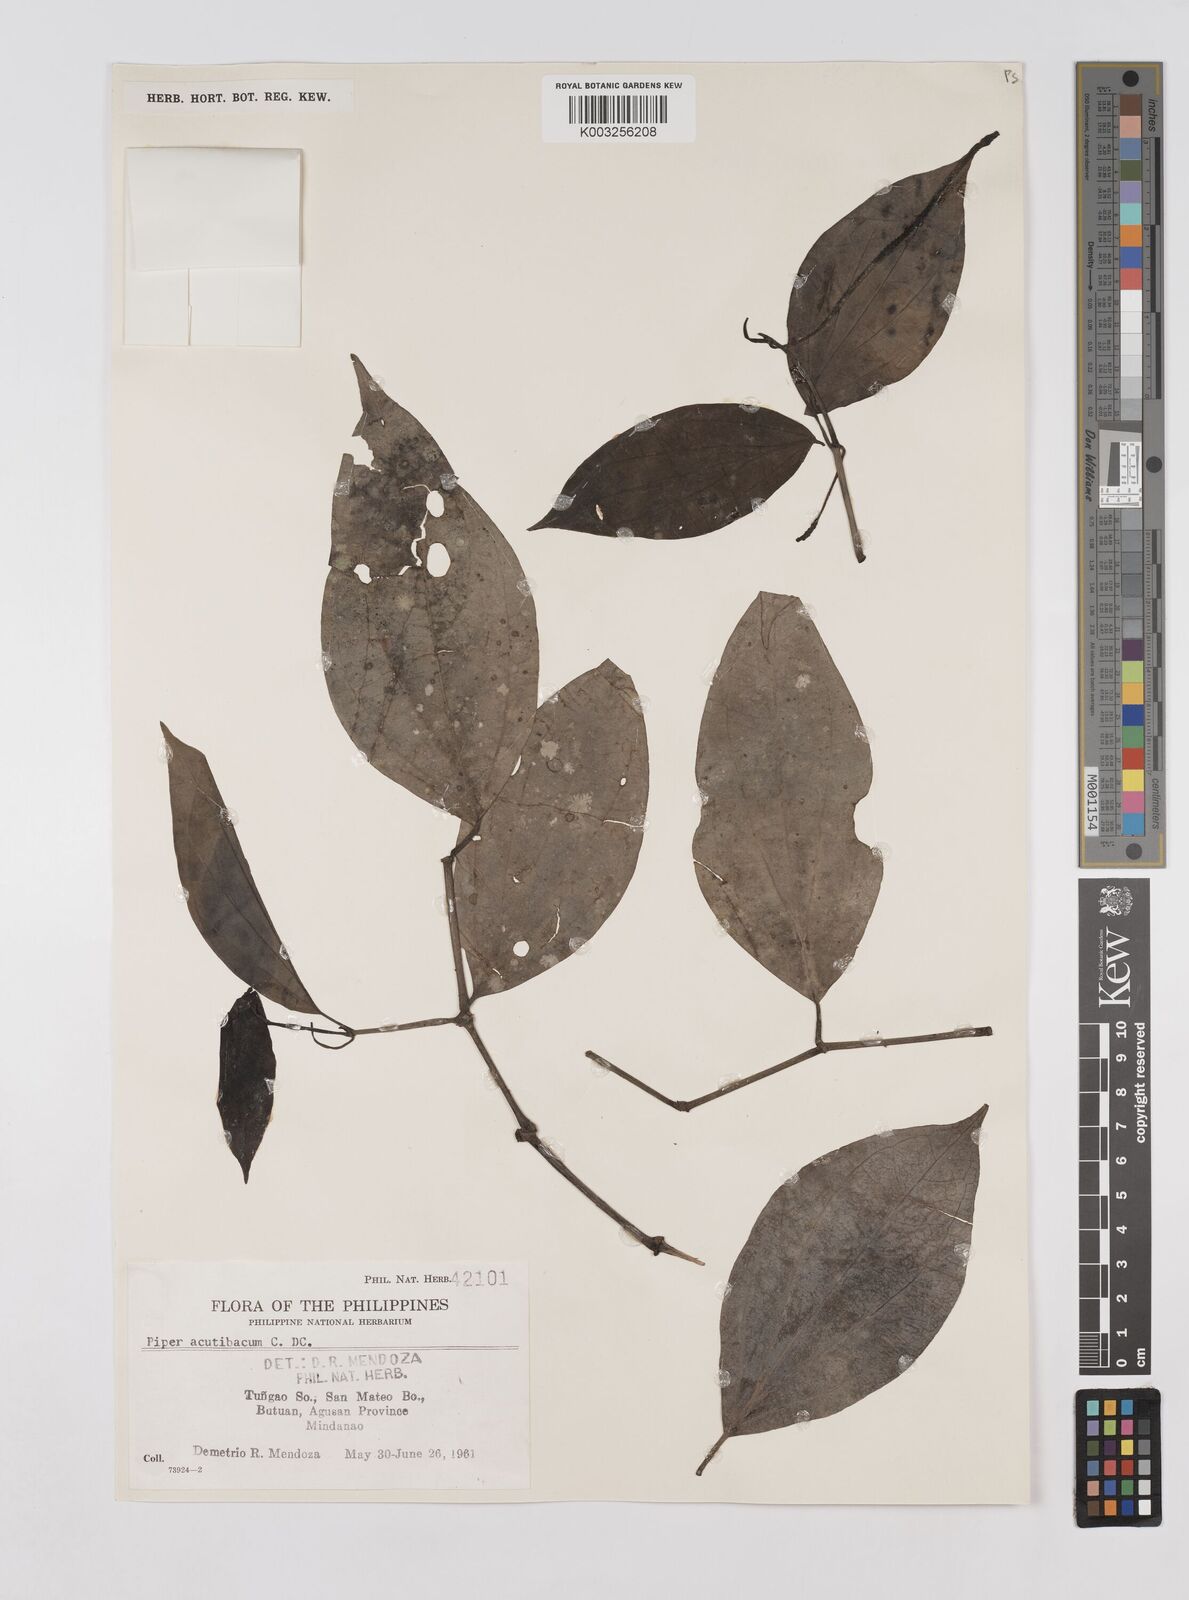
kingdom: Plantae
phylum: Tracheophyta
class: Magnoliopsida
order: Piperales
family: Piperaceae
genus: Piper
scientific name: Piper lanatum
